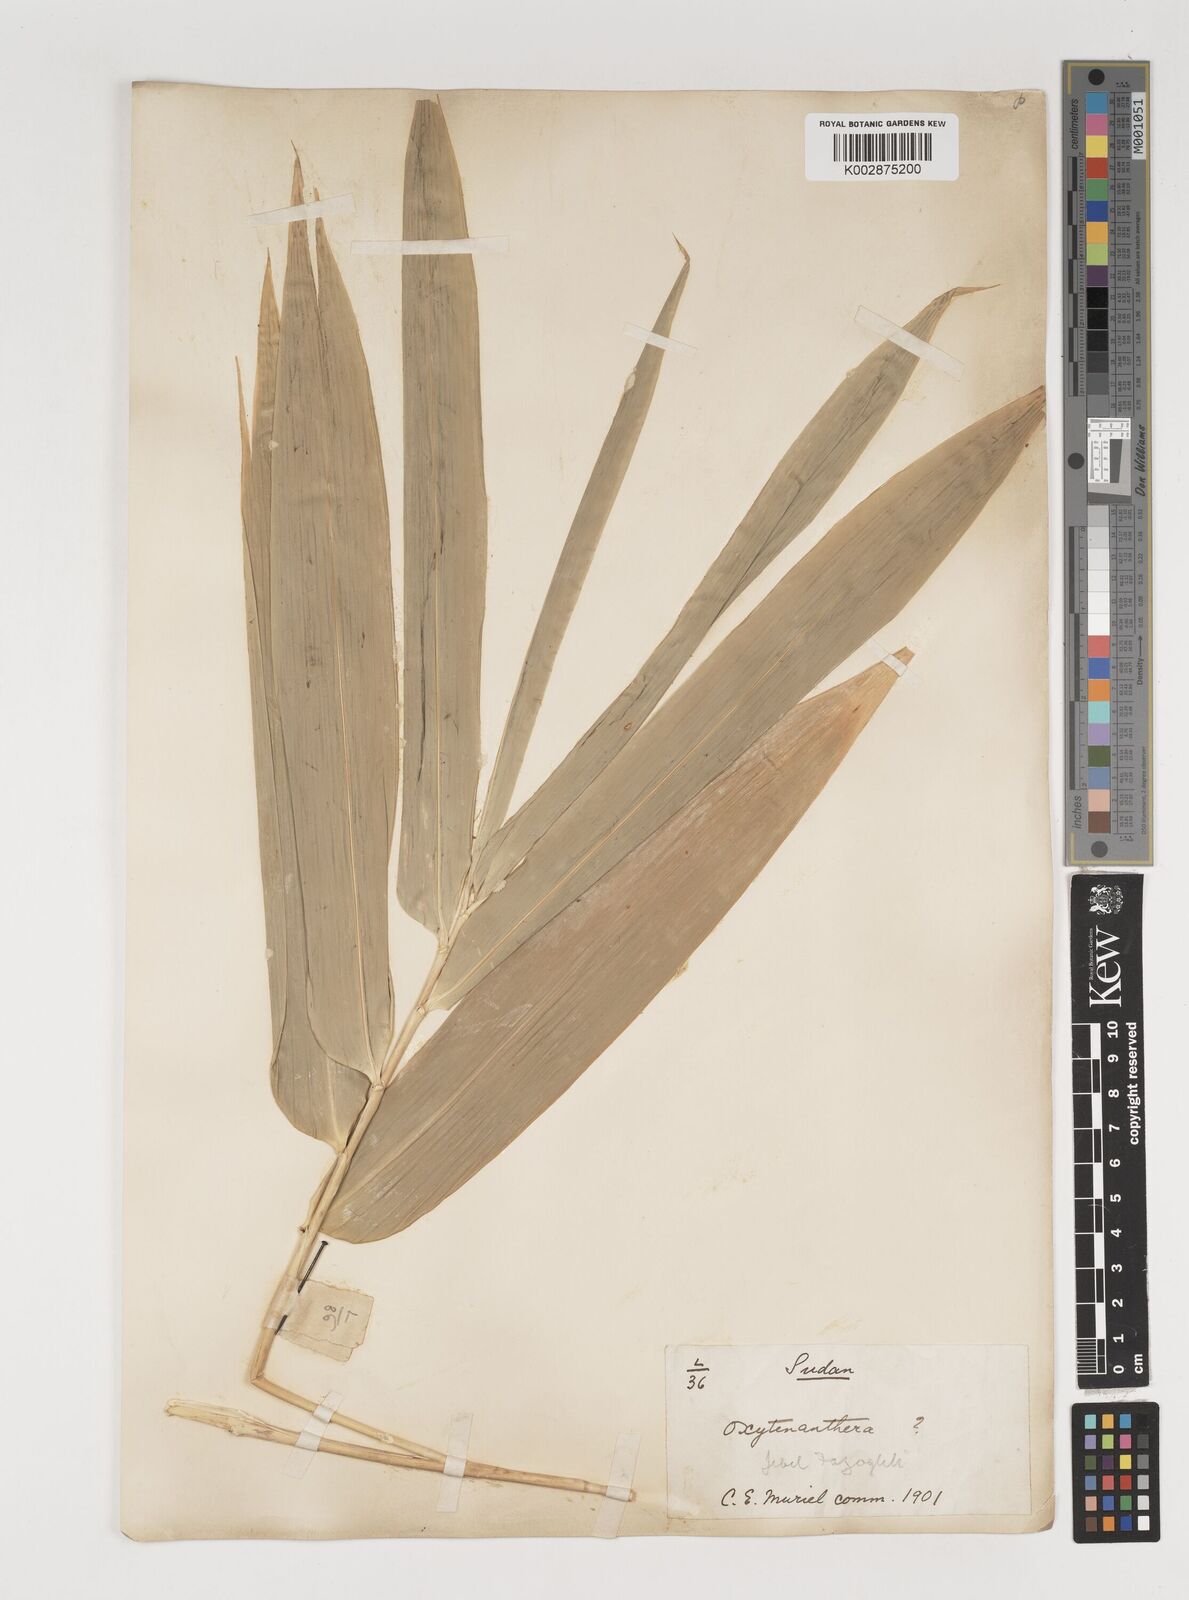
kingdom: Plantae
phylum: Tracheophyta
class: Liliopsida
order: Poales
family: Poaceae
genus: Oxytenanthera
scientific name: Oxytenanthera abyssinica
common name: Wine bamboo
